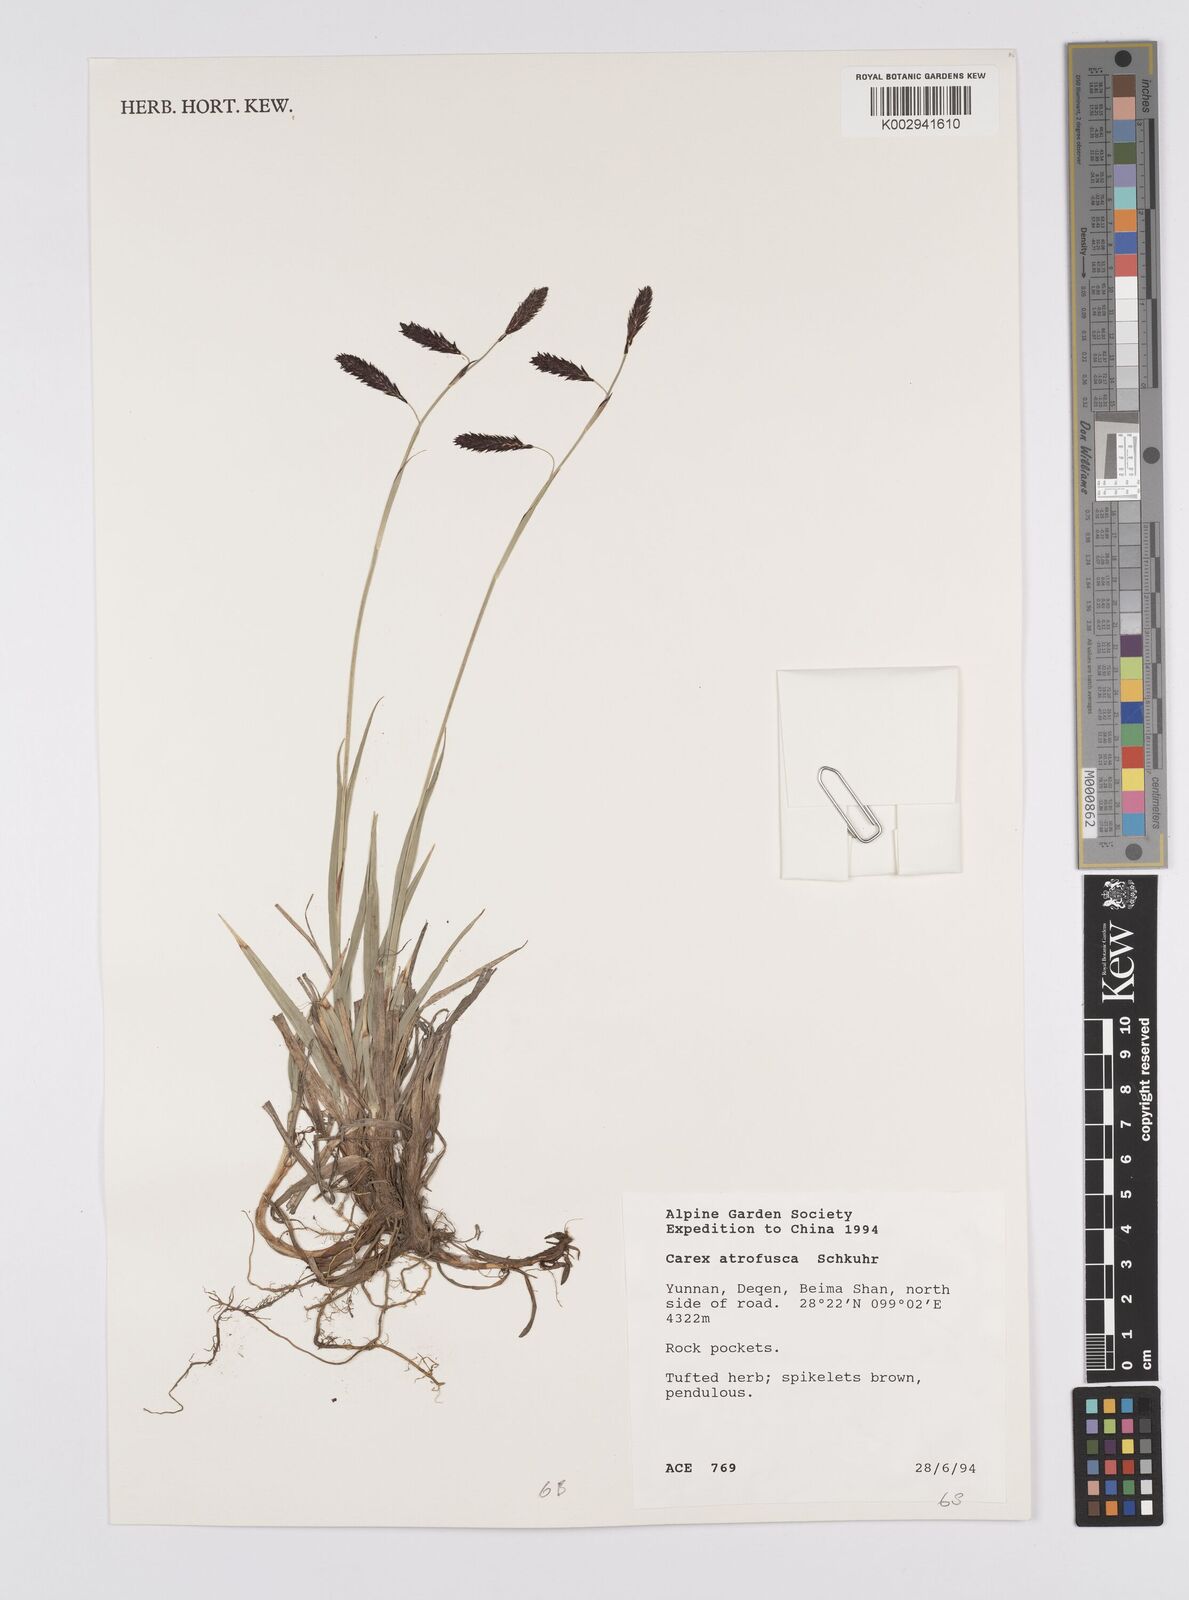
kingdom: Plantae
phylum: Tracheophyta
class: Liliopsida
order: Poales
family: Cyperaceae
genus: Carex
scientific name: Carex atrofusca
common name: Scorched alpine-sedge
